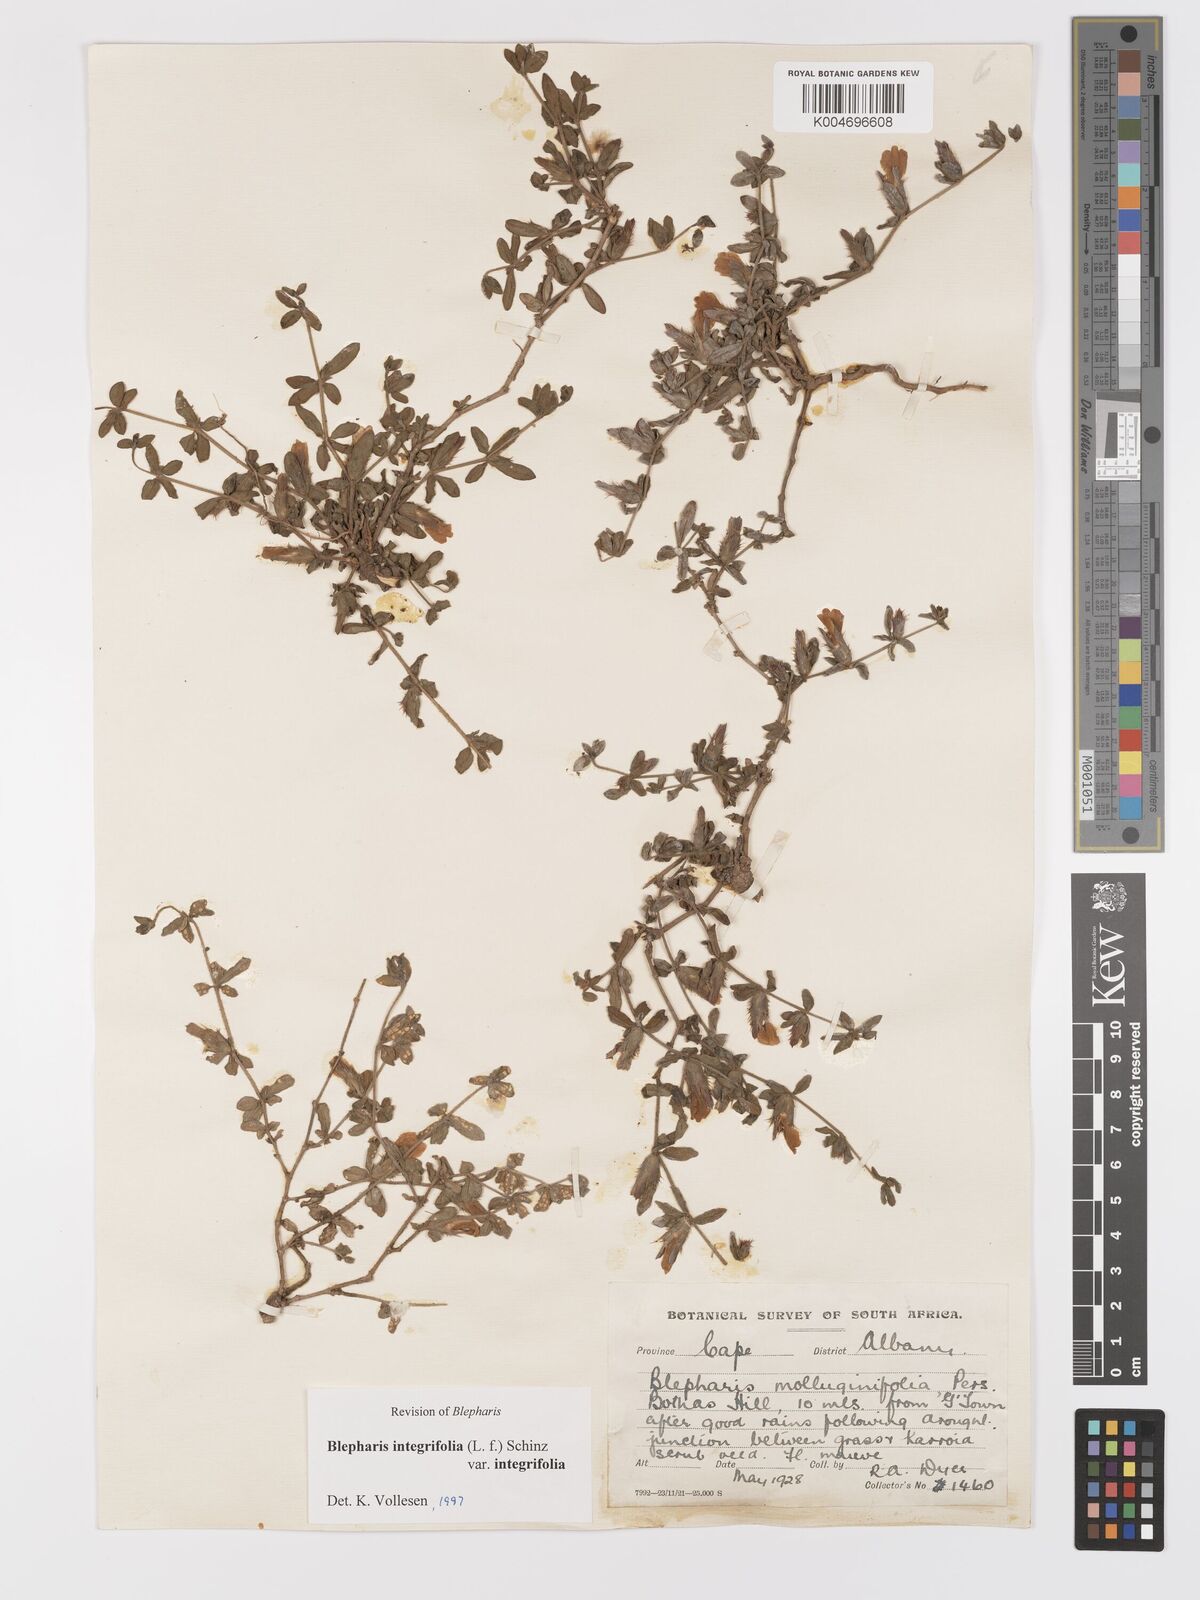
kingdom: Plantae
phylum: Tracheophyta
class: Magnoliopsida
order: Lamiales
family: Acanthaceae
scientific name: Acanthaceae
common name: Acanthaceae
